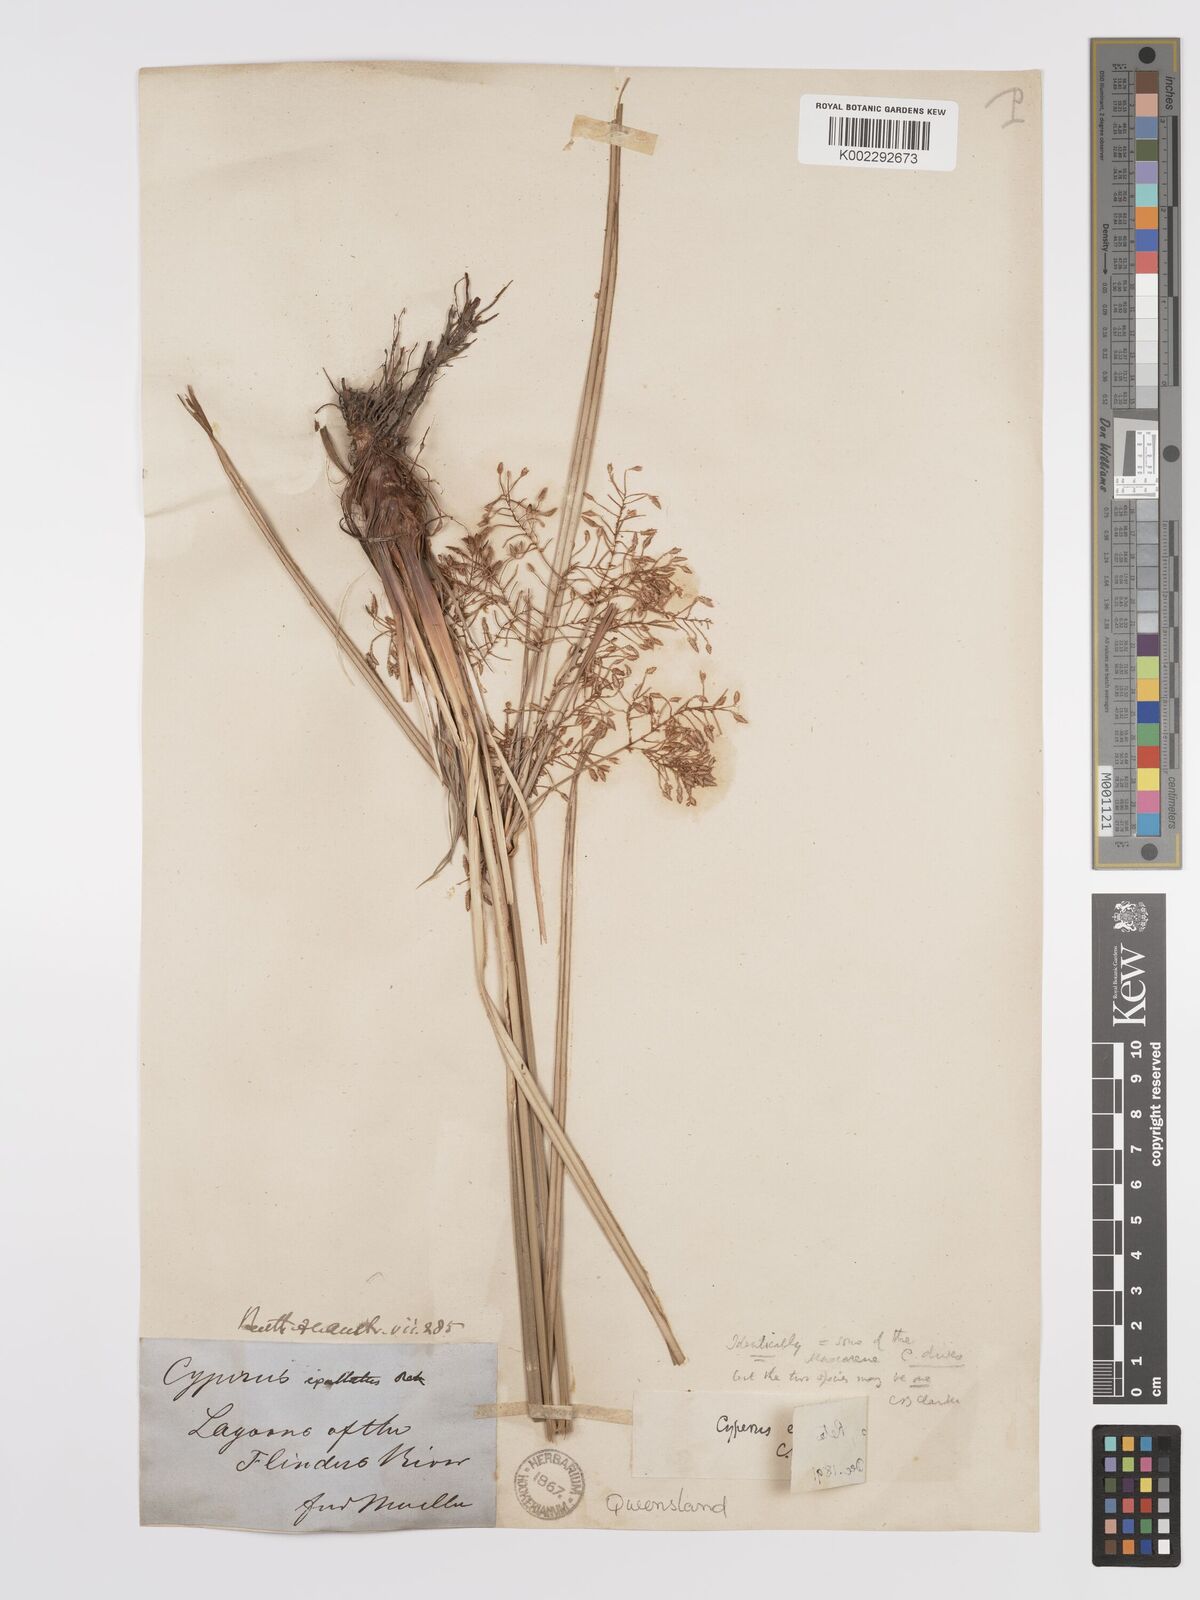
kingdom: Plantae
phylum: Tracheophyta
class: Liliopsida
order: Poales
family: Cyperaceae
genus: Cyperus
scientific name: Cyperus exaltatus
